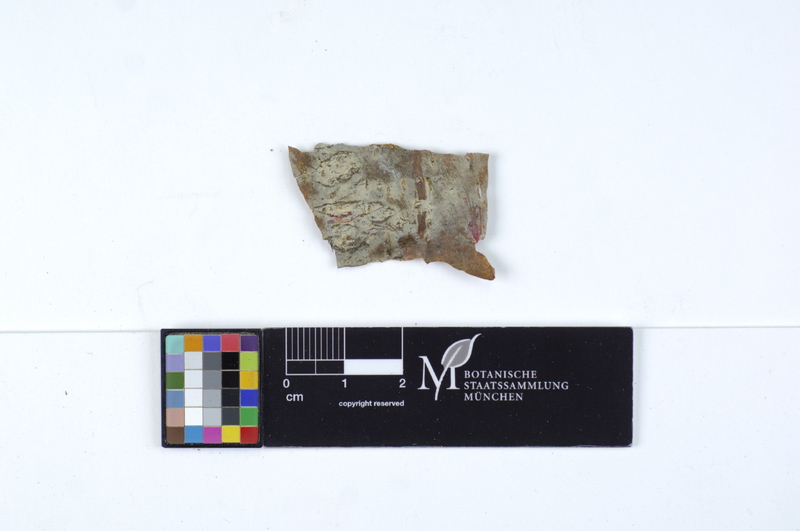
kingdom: Fungi
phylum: Basidiomycota
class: Agaricomycetes
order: Agaricales
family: Pterulaceae
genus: Coronicium
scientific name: Coronicium alboglaucum
